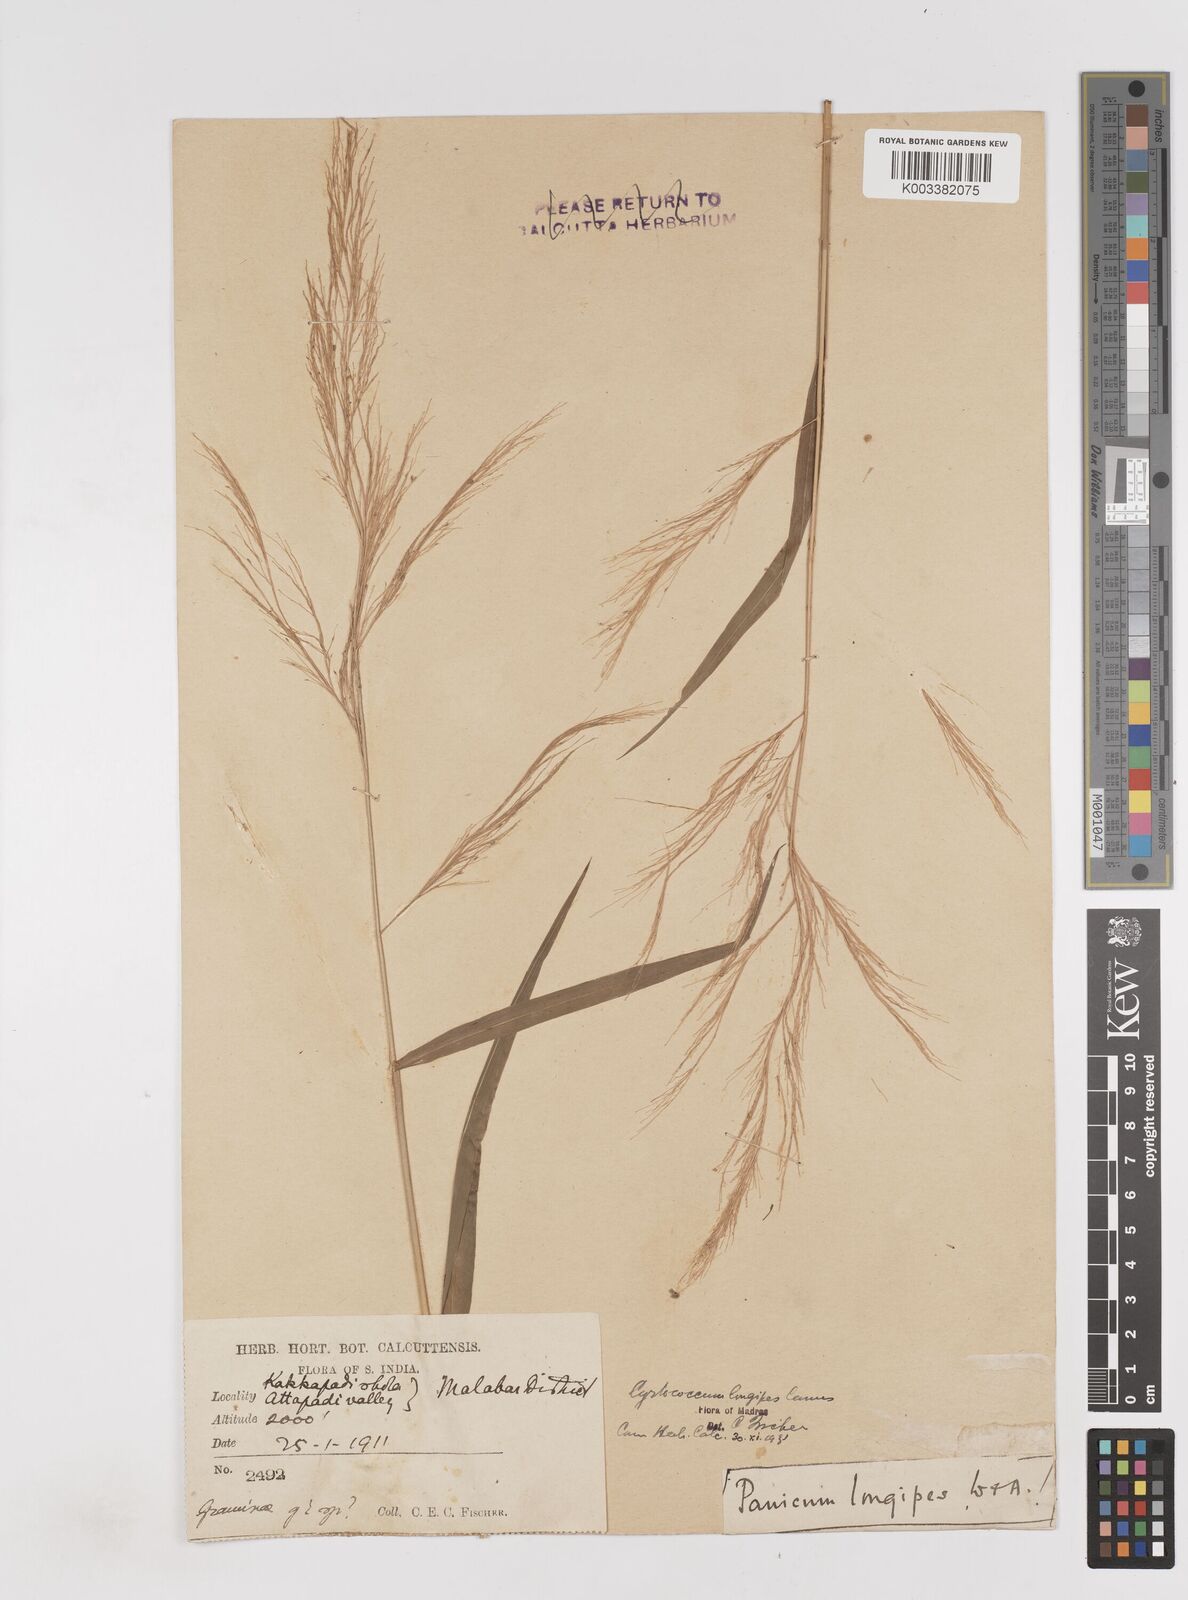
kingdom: Plantae
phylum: Tracheophyta
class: Liliopsida
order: Poales
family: Poaceae
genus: Cyrtococcum
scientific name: Cyrtococcum longipes
